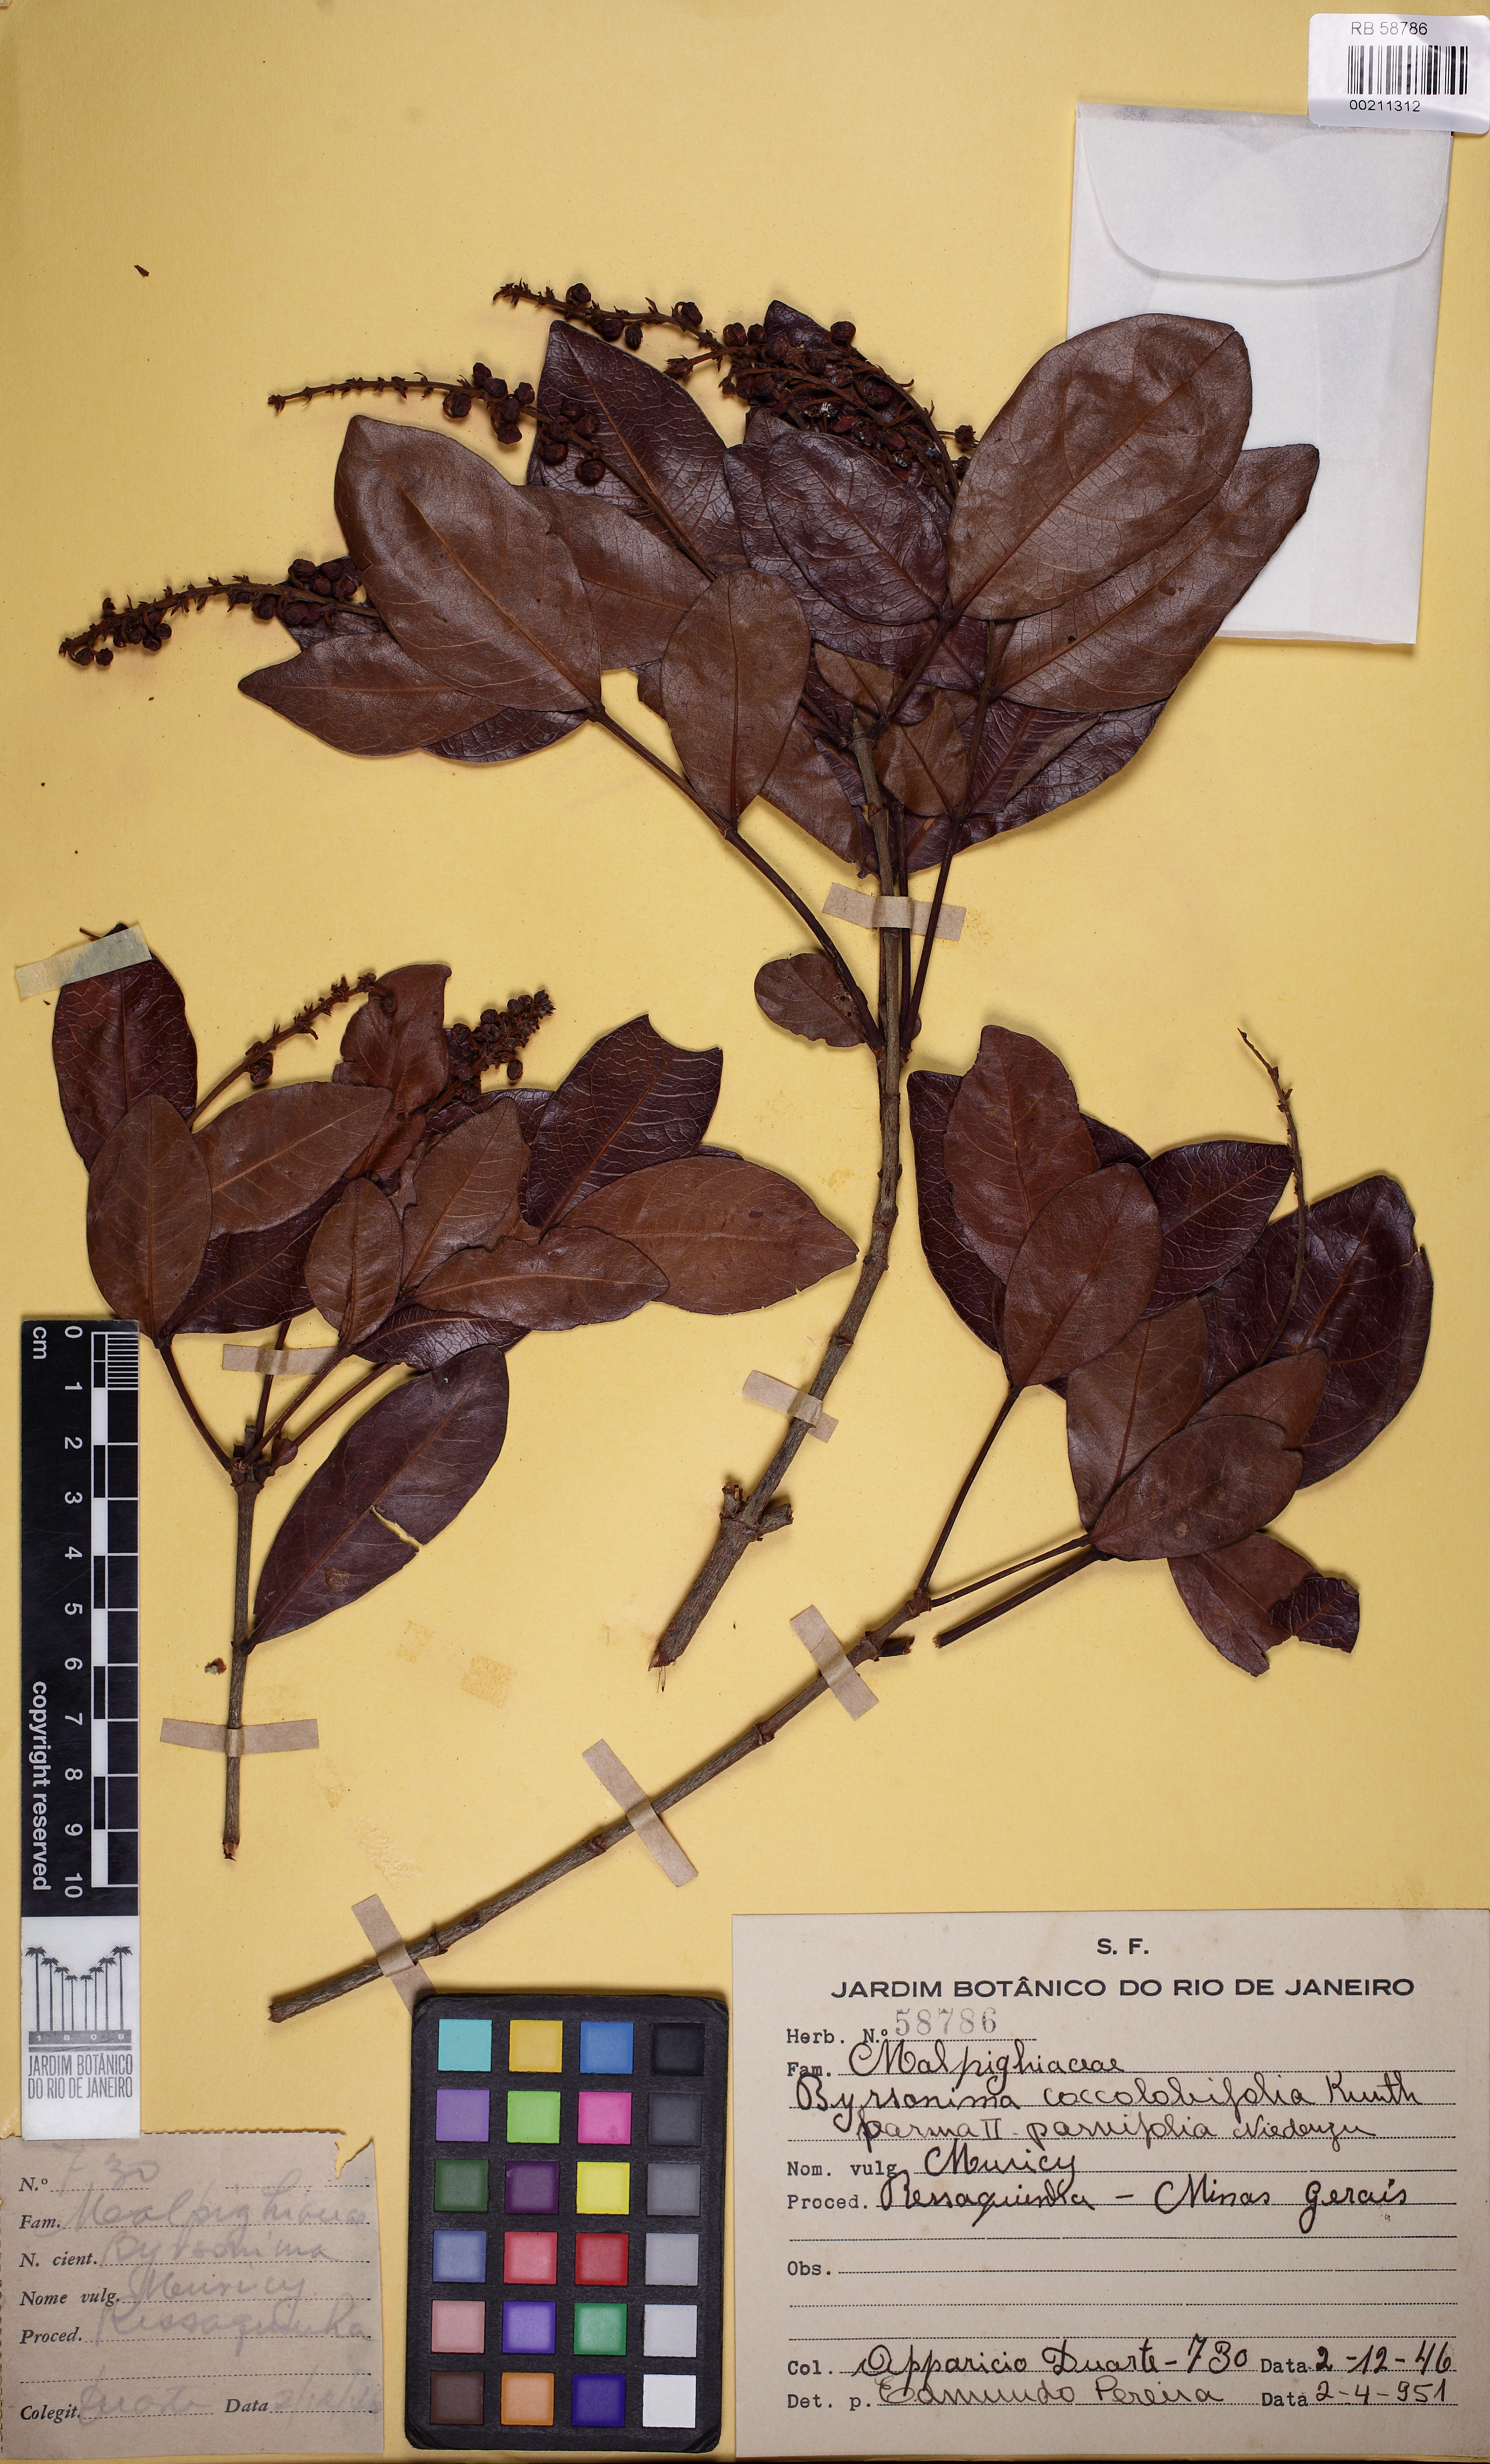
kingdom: Plantae
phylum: Tracheophyta
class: Magnoliopsida
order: Malpighiales
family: Malpighiaceae
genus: Byrsonima
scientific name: Byrsonima coccolobifolia
